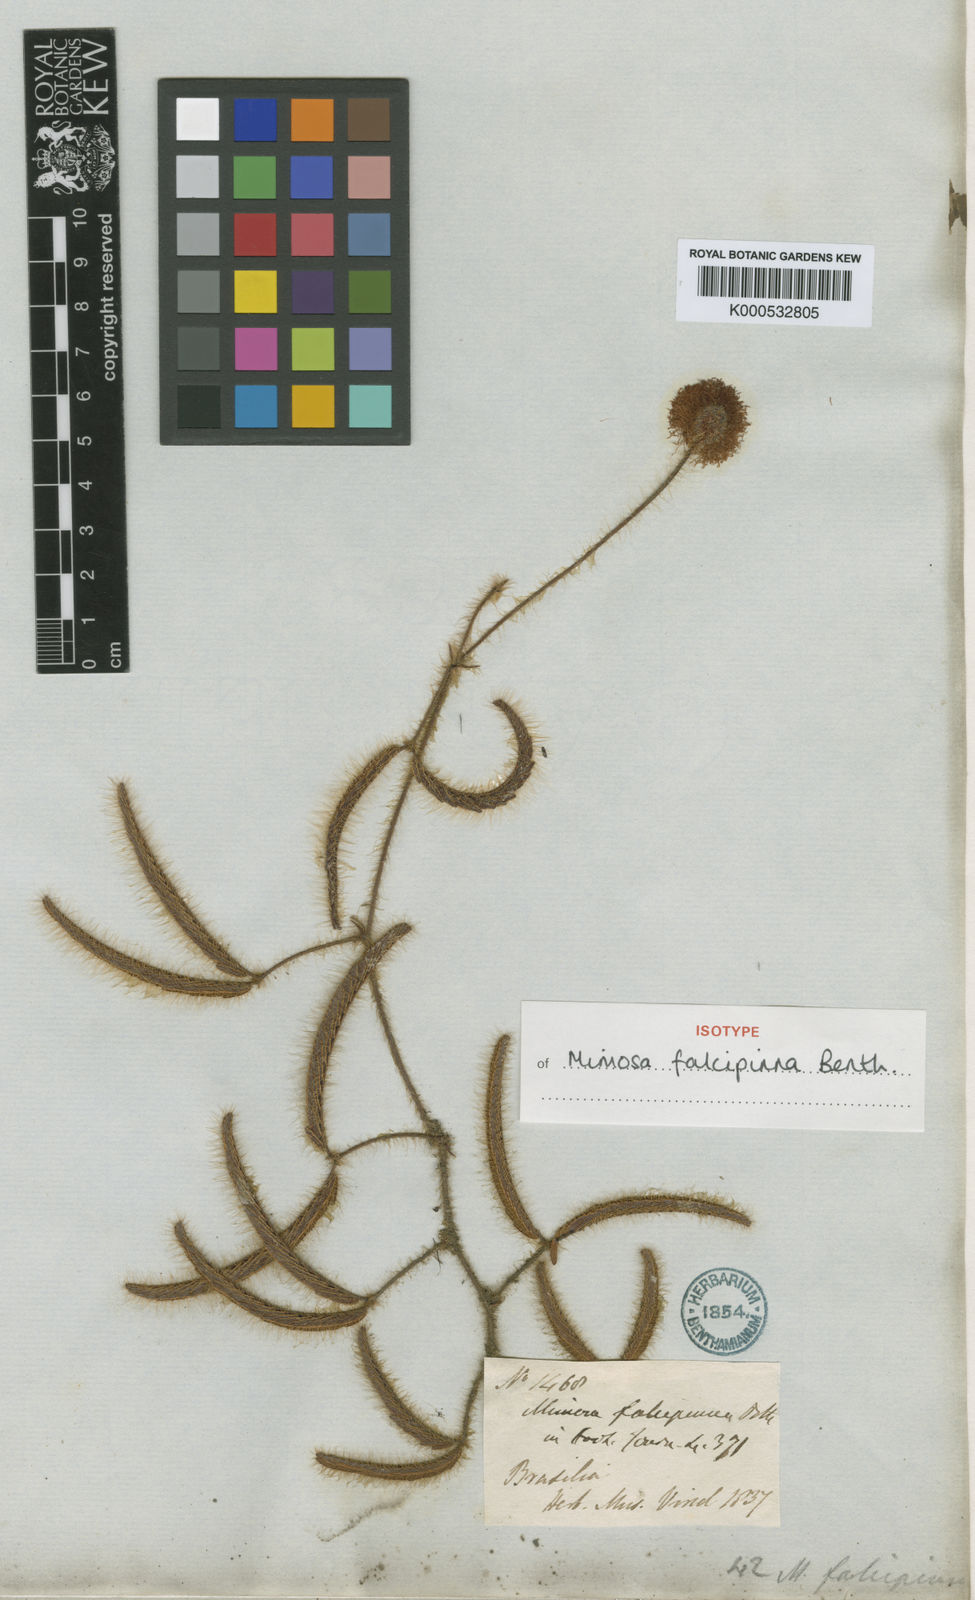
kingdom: Plantae
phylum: Tracheophyta
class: Magnoliopsida
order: Fabales
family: Fabaceae
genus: Mimosa
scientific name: Mimosa falcipinna
